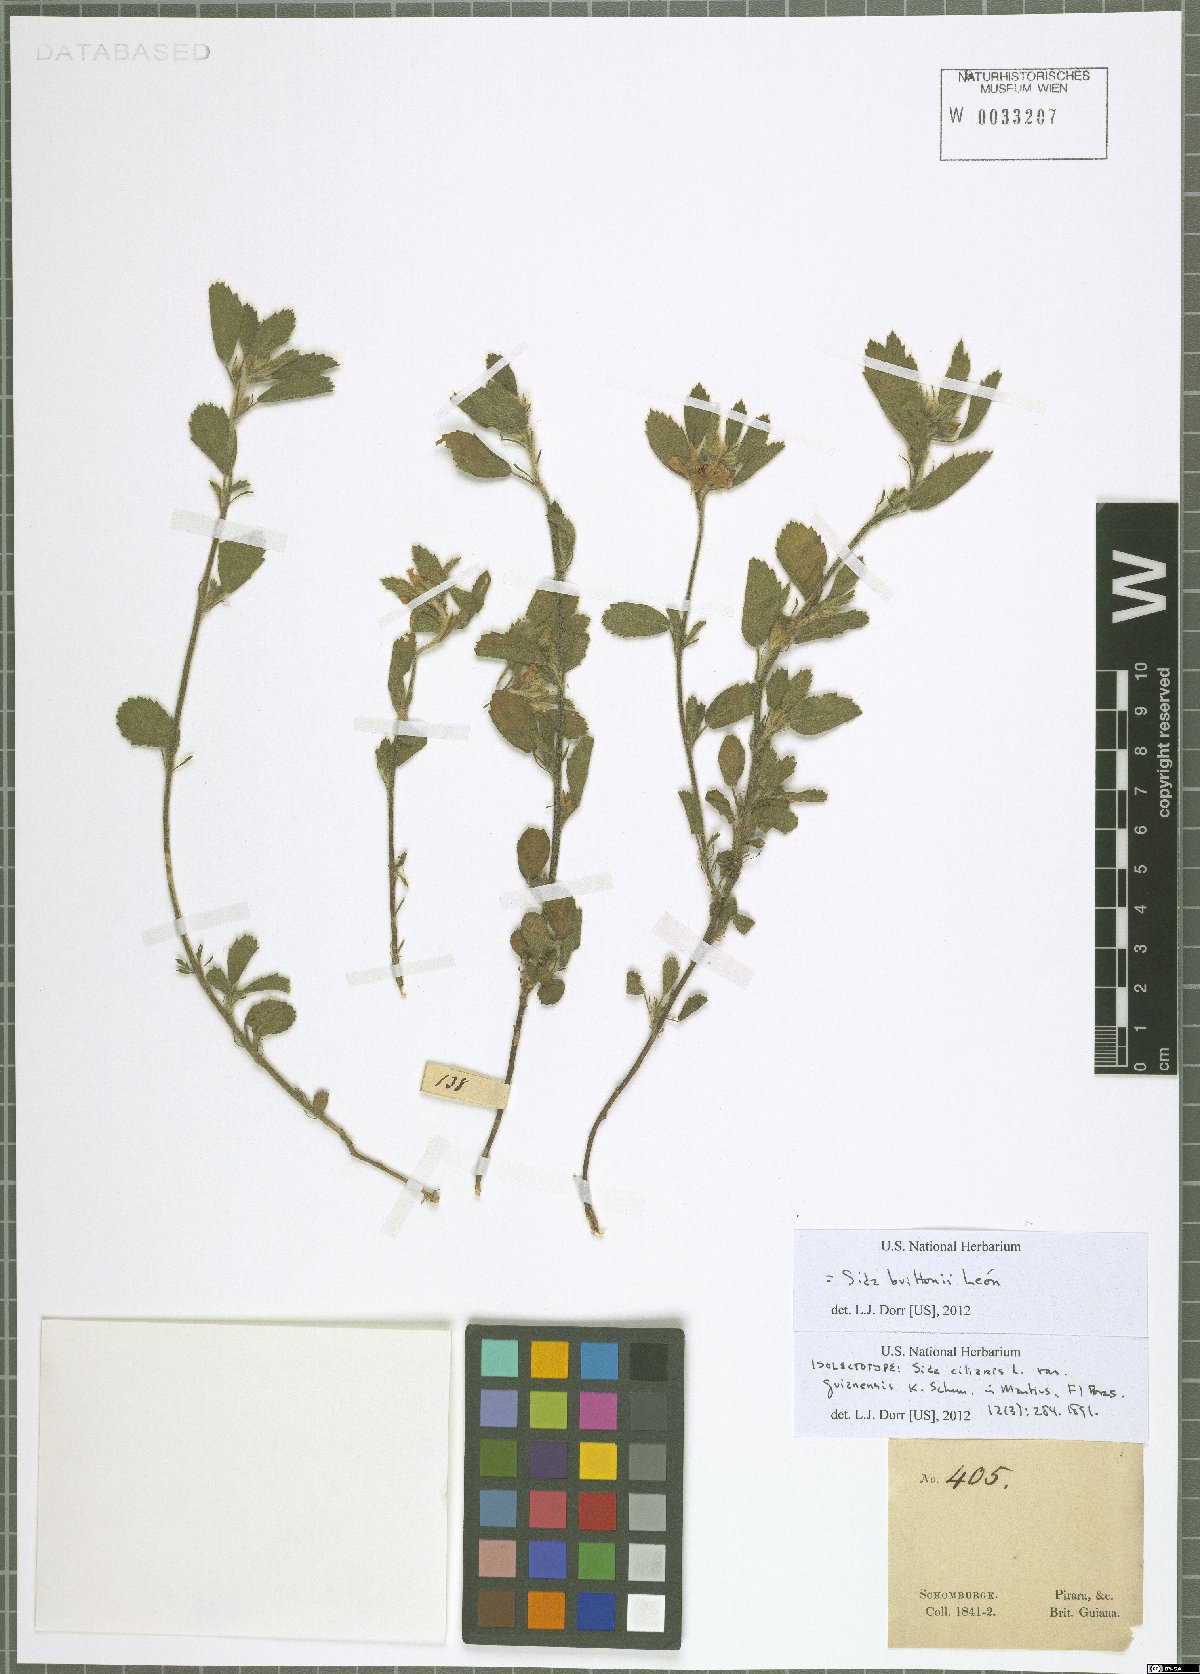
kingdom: Plantae
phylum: Tracheophyta
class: Magnoliopsida
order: Malvales
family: Malvaceae
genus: Sida
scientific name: Sida brittonii
